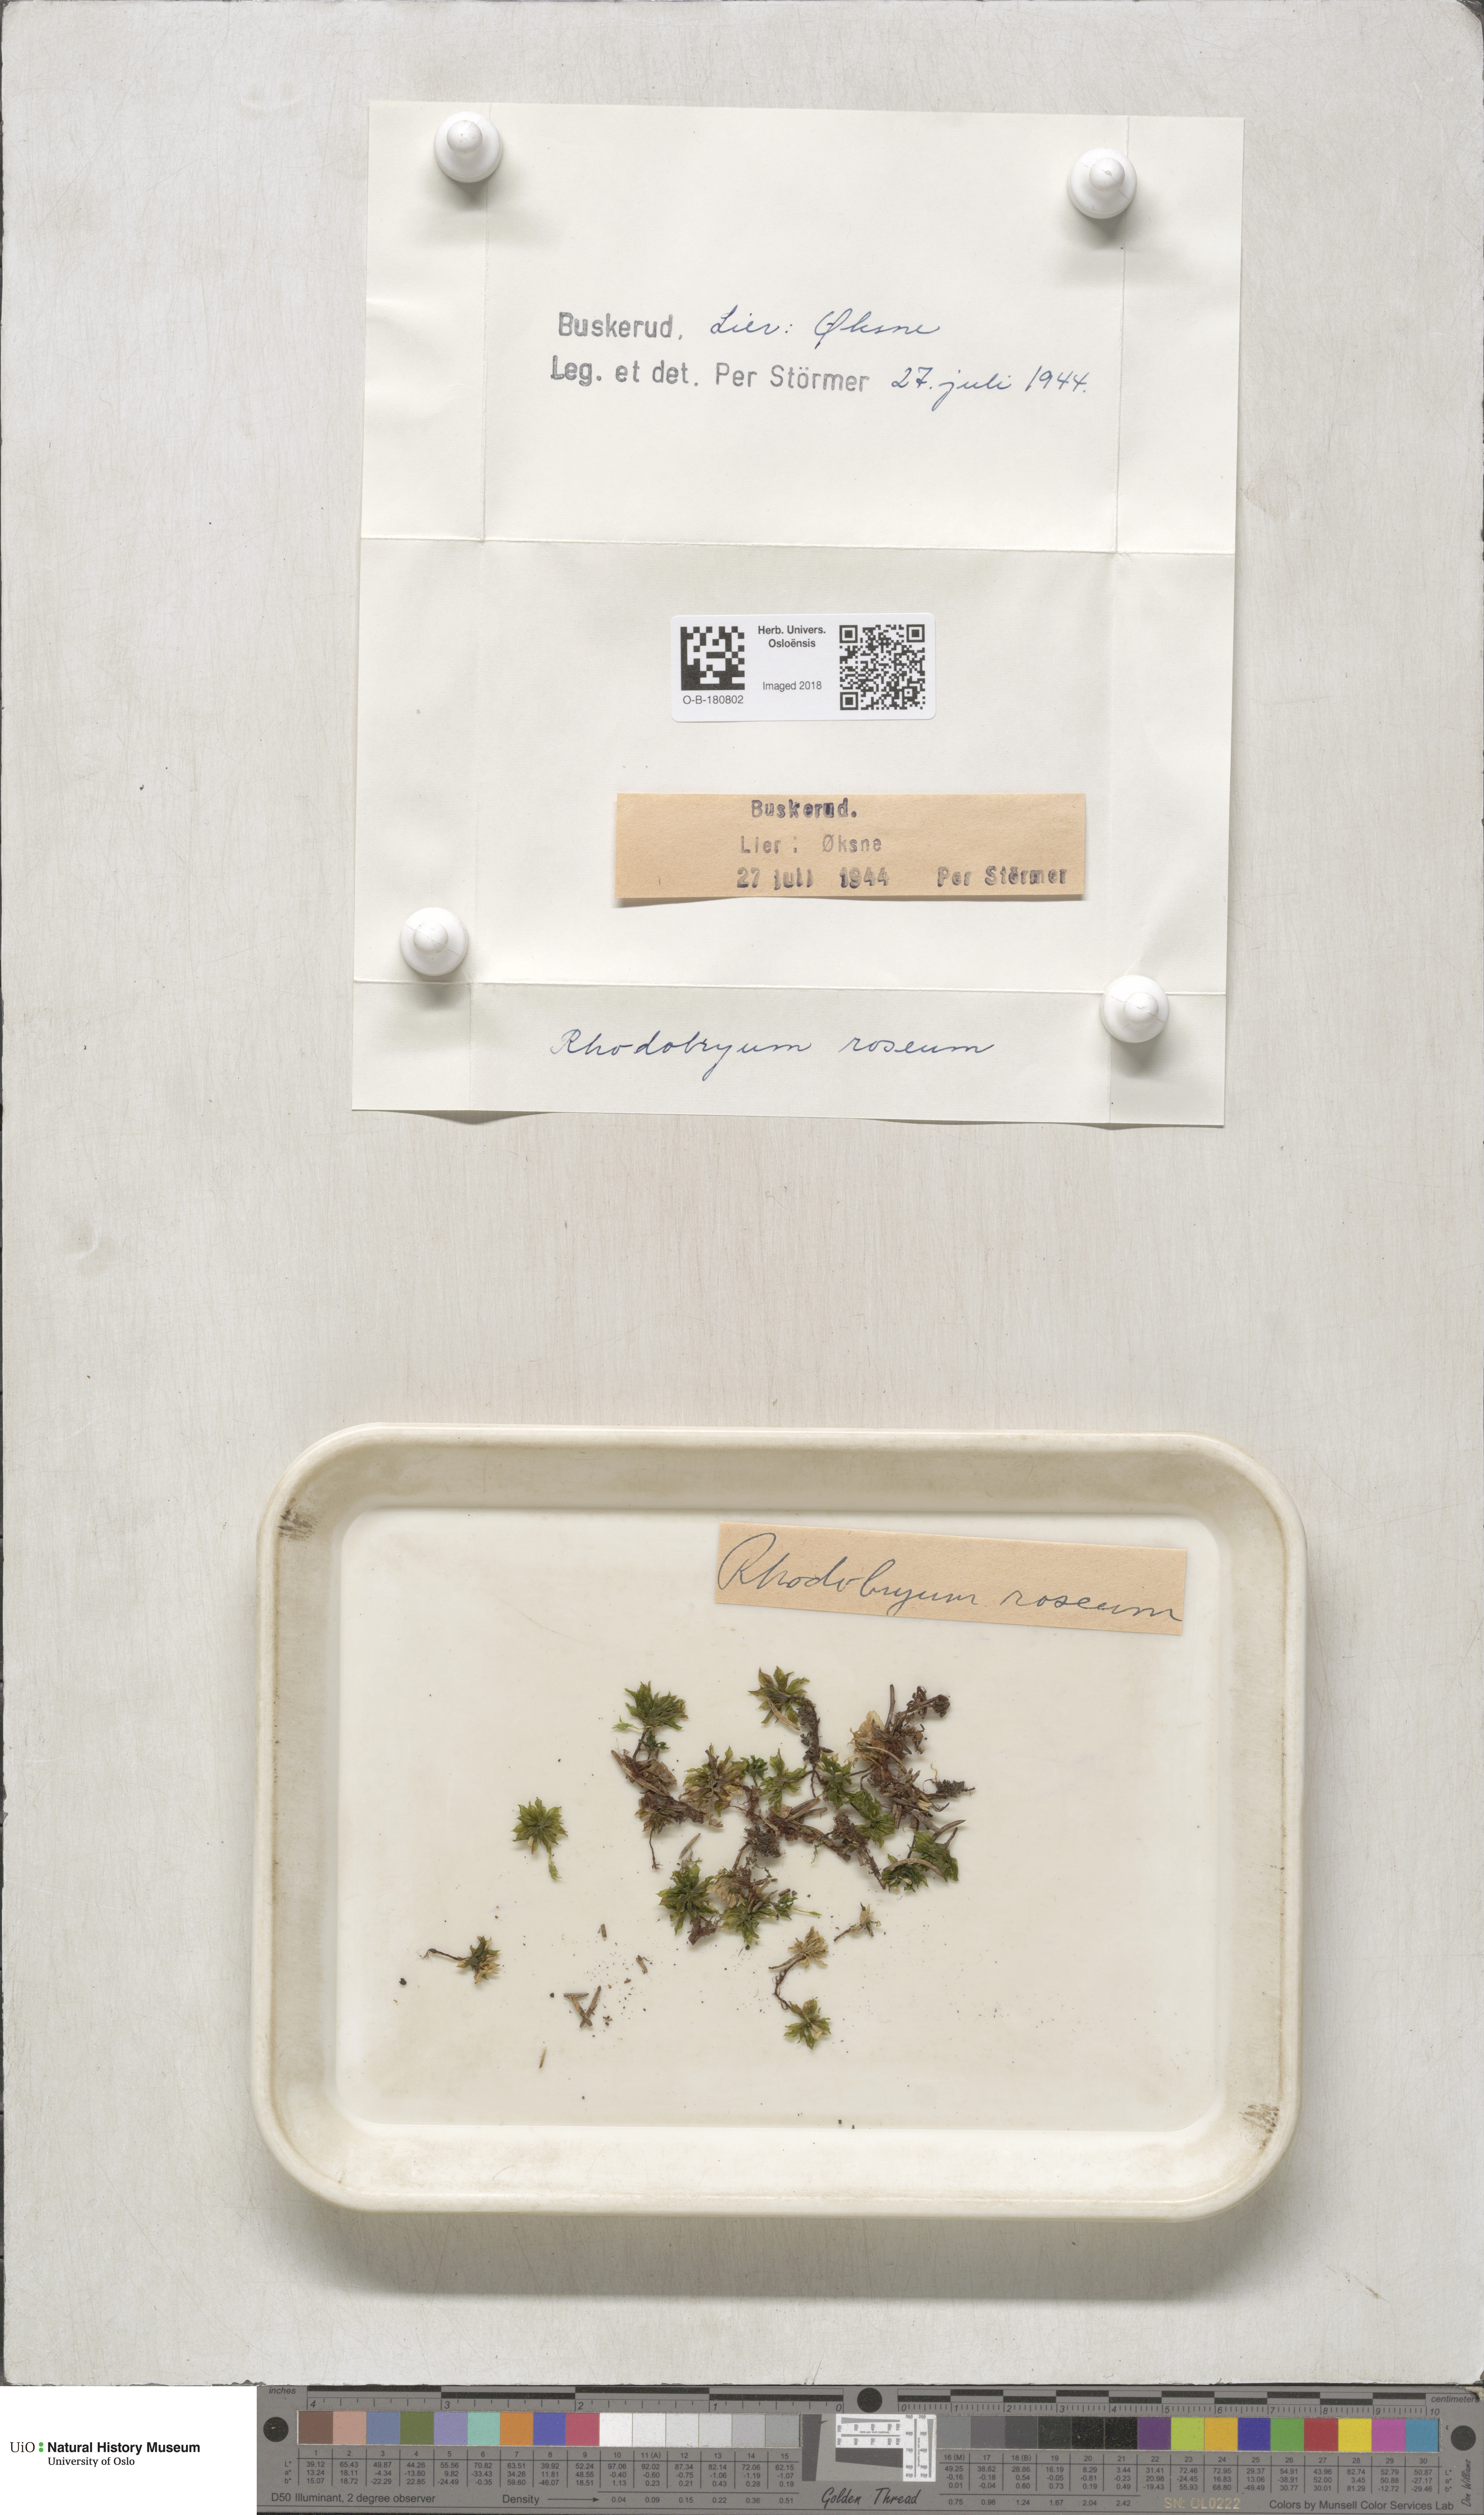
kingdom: Plantae
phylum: Bryophyta
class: Bryopsida
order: Bryales
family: Bryaceae
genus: Rhodobryum
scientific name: Rhodobryum roseum
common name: Rose-moss
